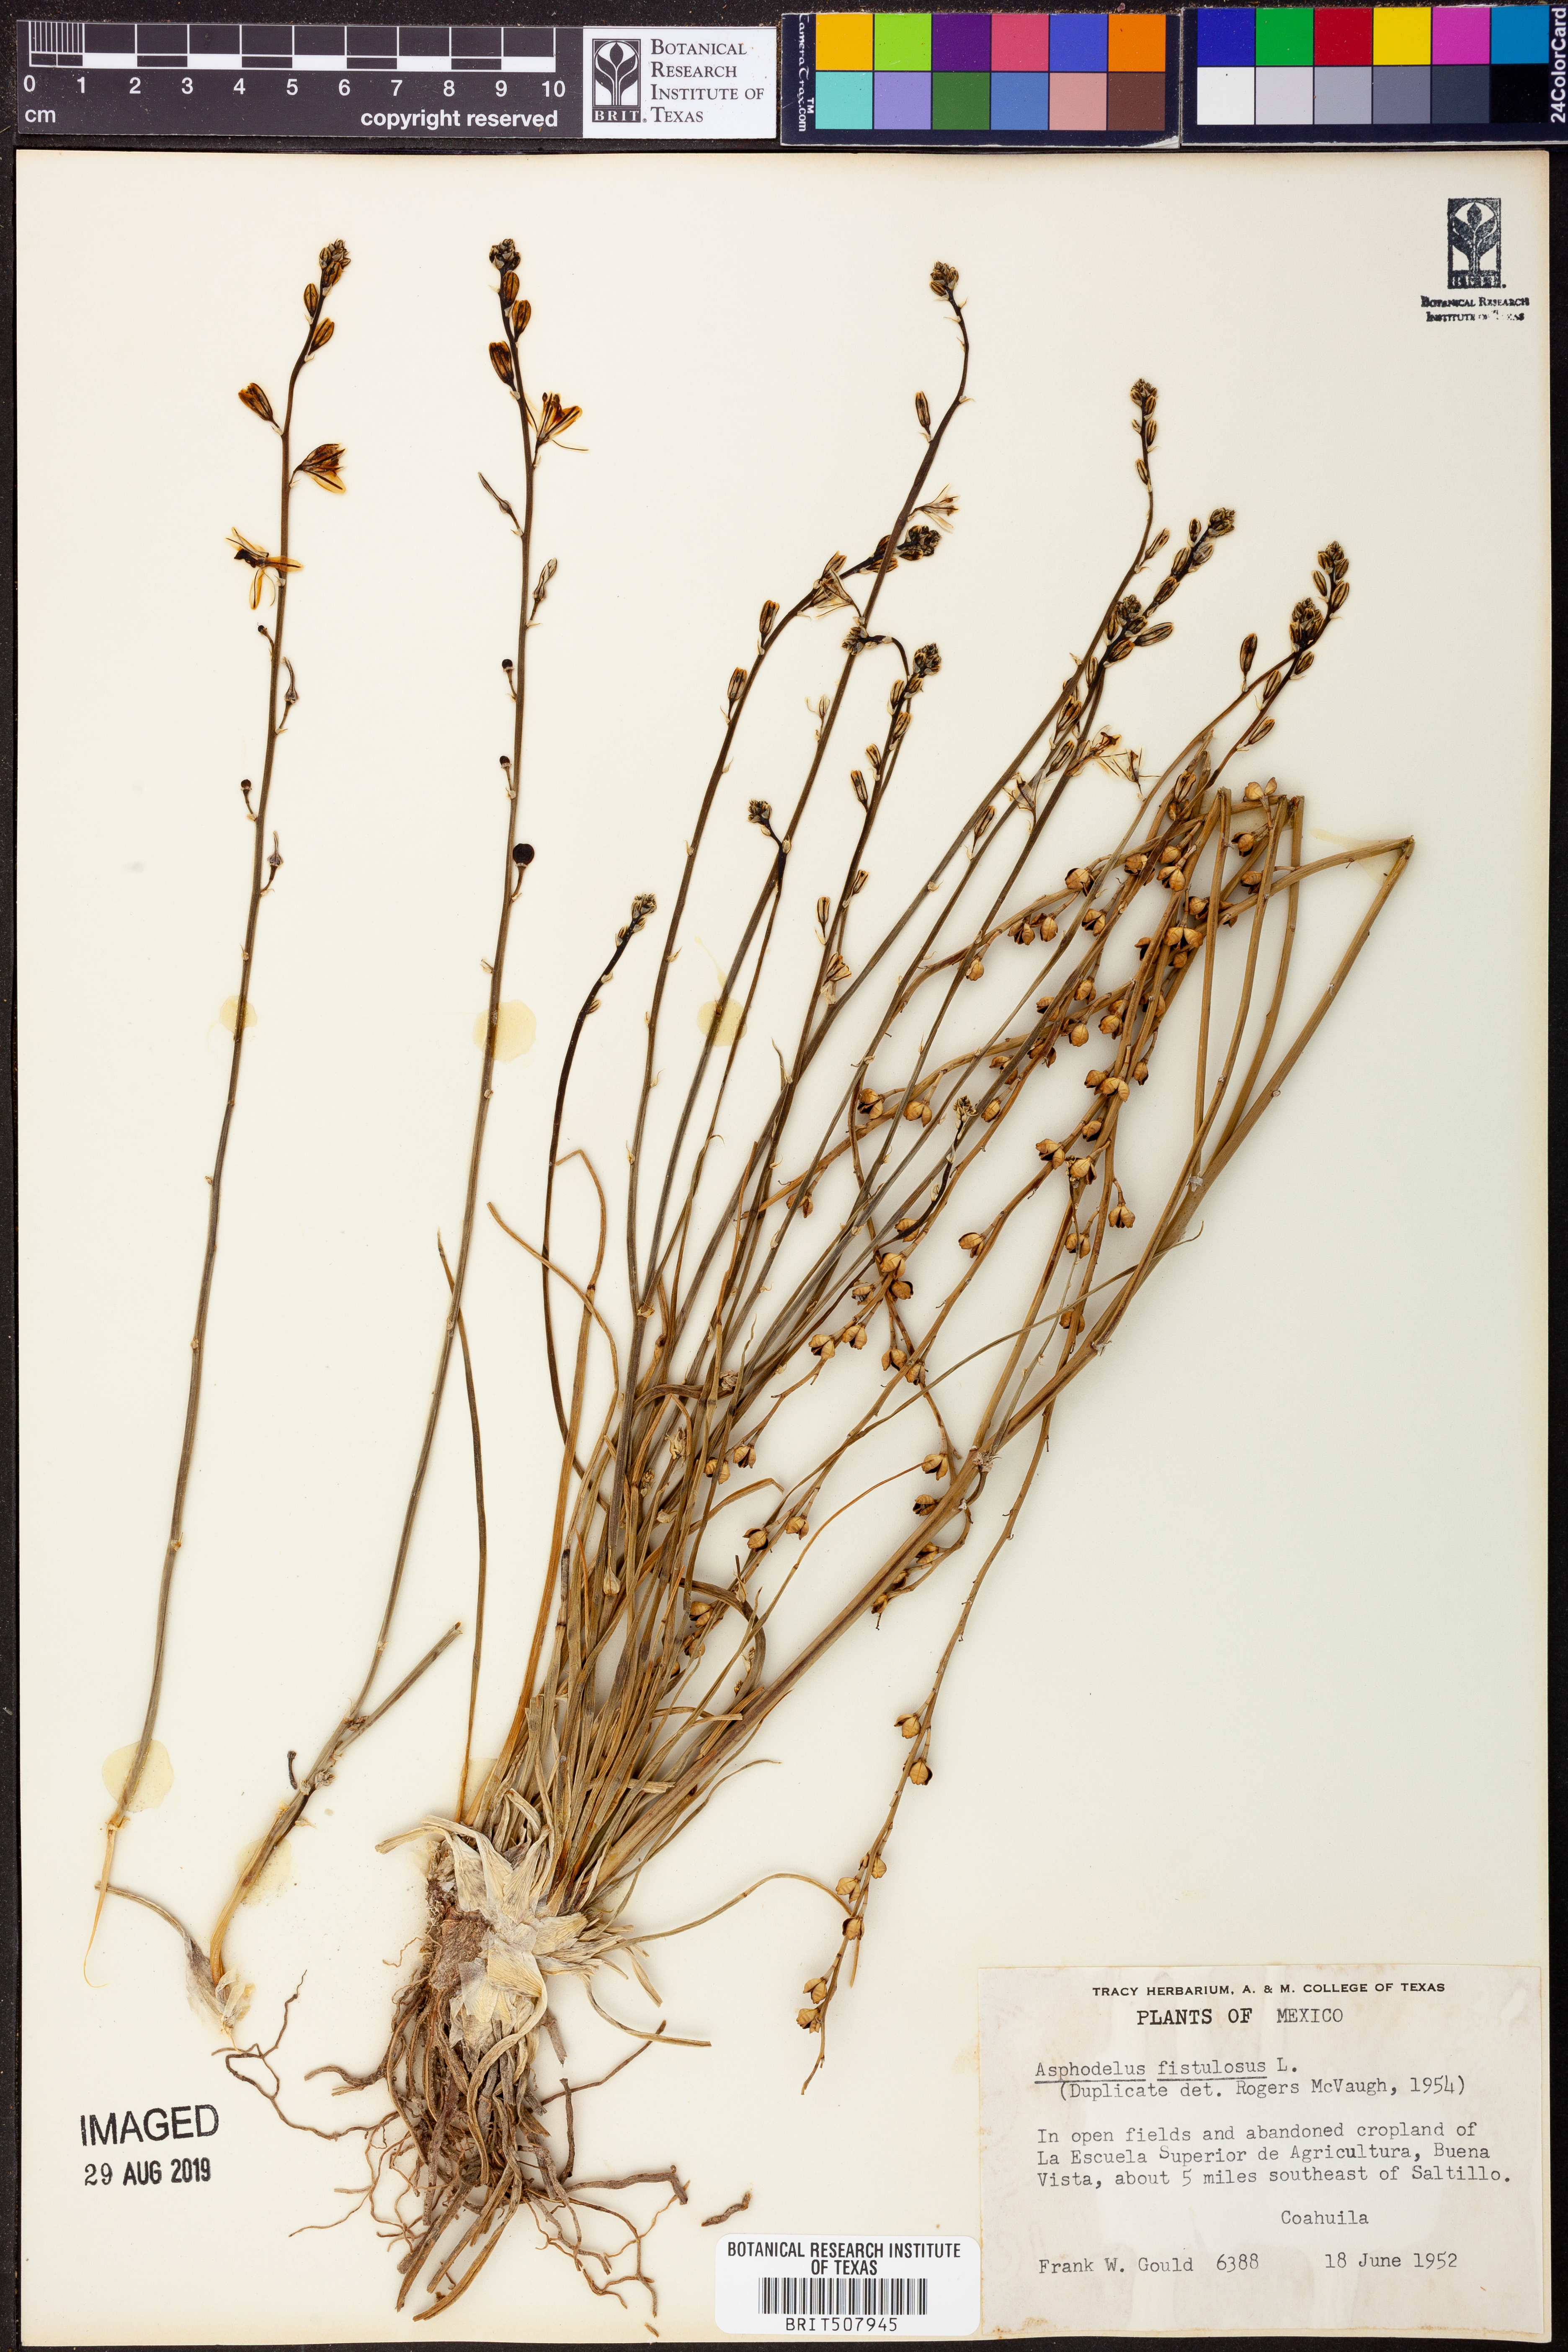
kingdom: Plantae
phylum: Tracheophyta
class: Liliopsida
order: Asparagales
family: Asphodelaceae
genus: Asphodelus
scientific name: Asphodelus fistulosus
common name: Onionweed
